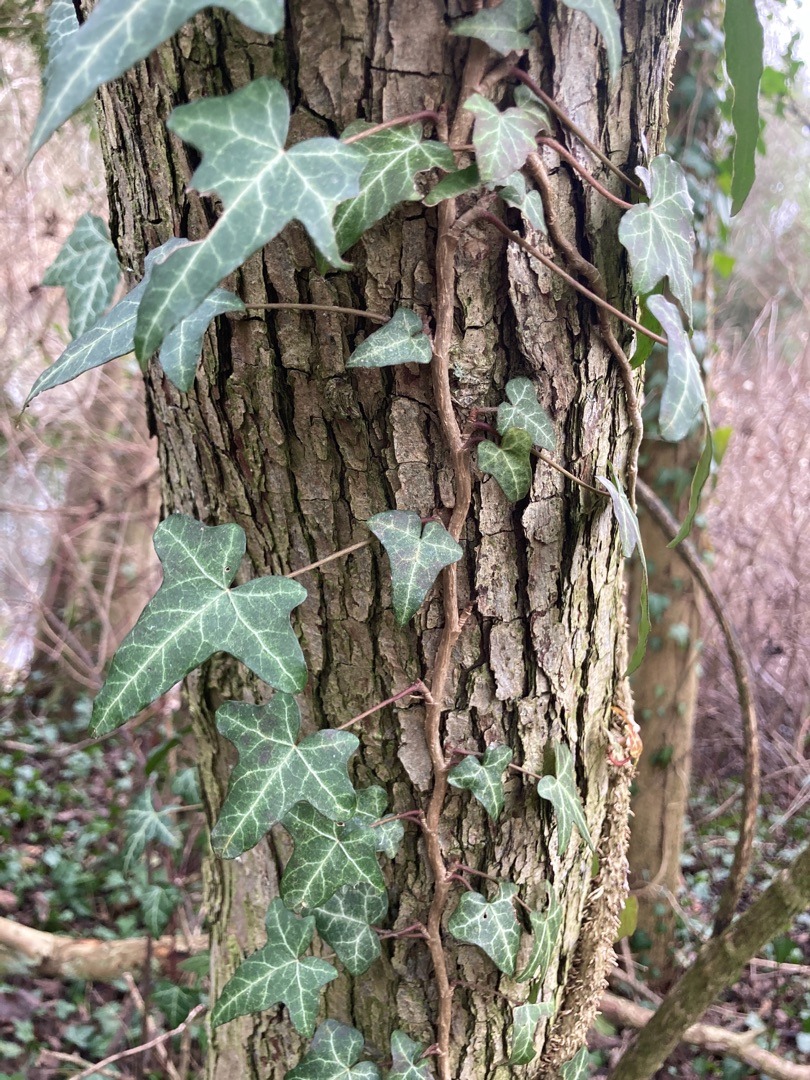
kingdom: Plantae
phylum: Tracheophyta
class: Magnoliopsida
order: Apiales
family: Araliaceae
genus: Hedera
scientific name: Hedera helix
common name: Vedbend
